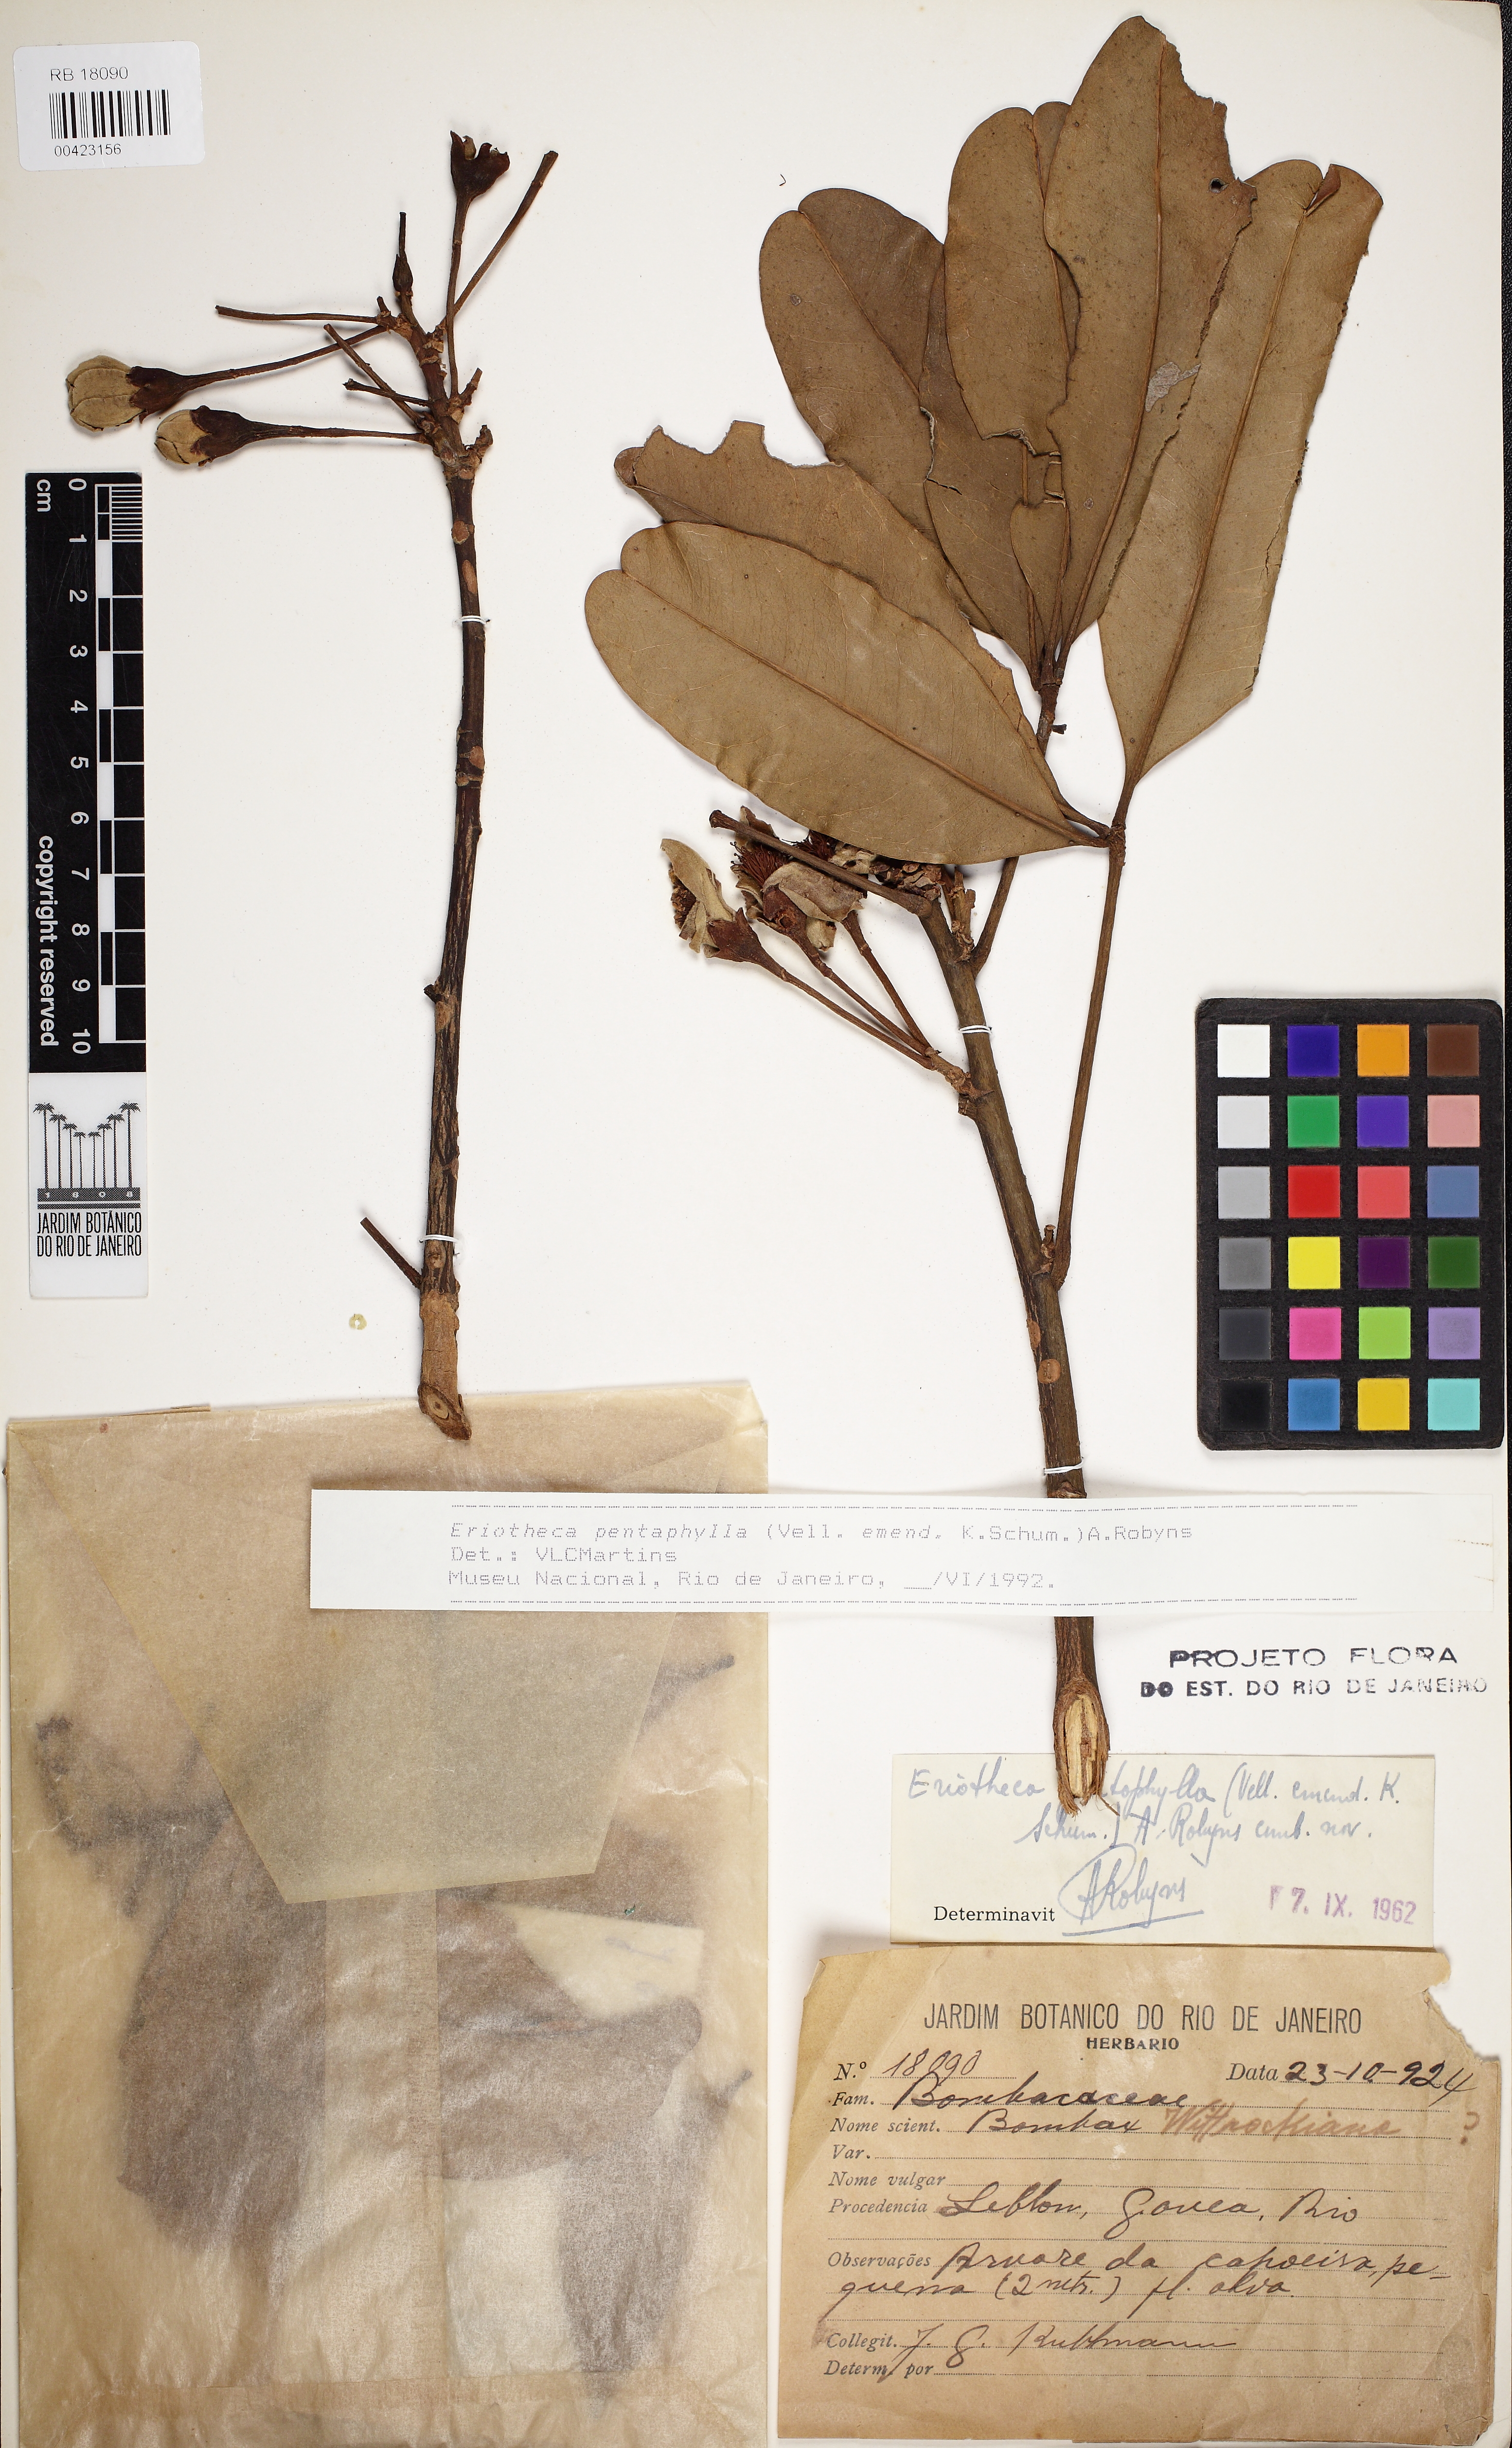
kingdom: Plantae
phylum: Tracheophyta
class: Magnoliopsida
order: Malvales
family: Malvaceae
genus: Eriotheca
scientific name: Eriotheca pentaphylla
